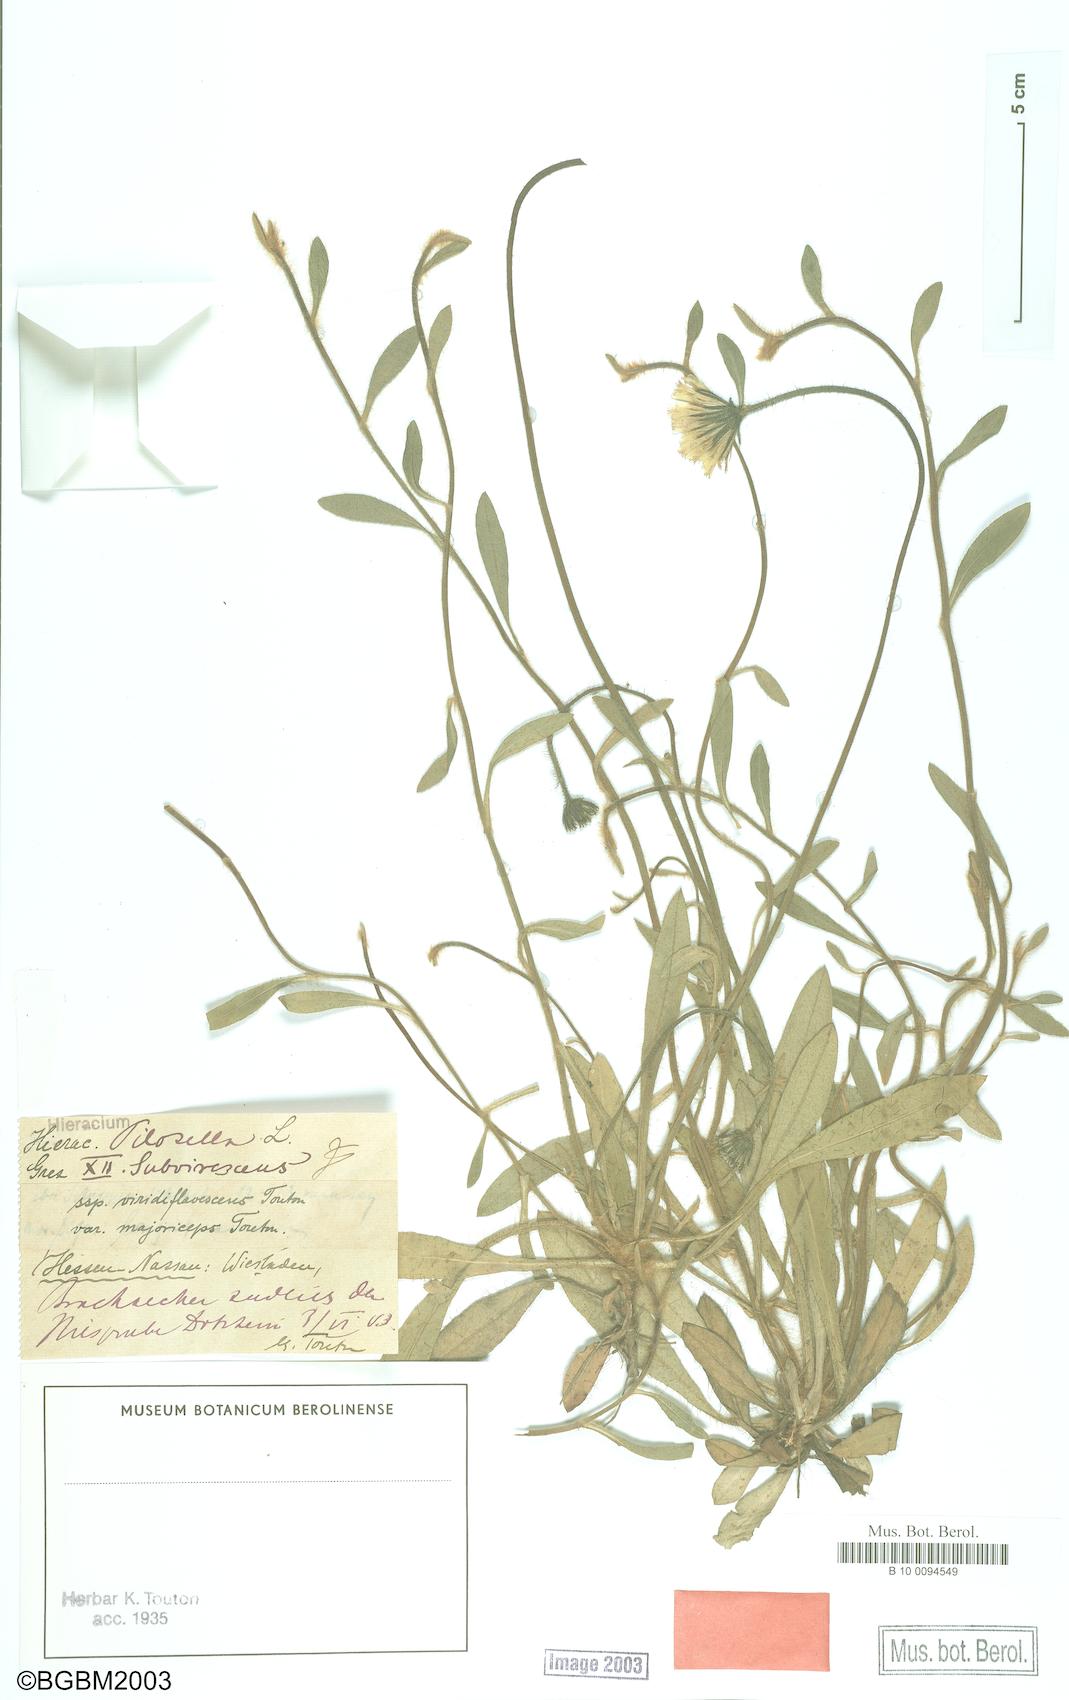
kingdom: Plantae
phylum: Tracheophyta
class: Magnoliopsida
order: Asterales
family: Asteraceae
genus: Pilosella
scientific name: Pilosella officinarum
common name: Mouse-ear hawkweed
